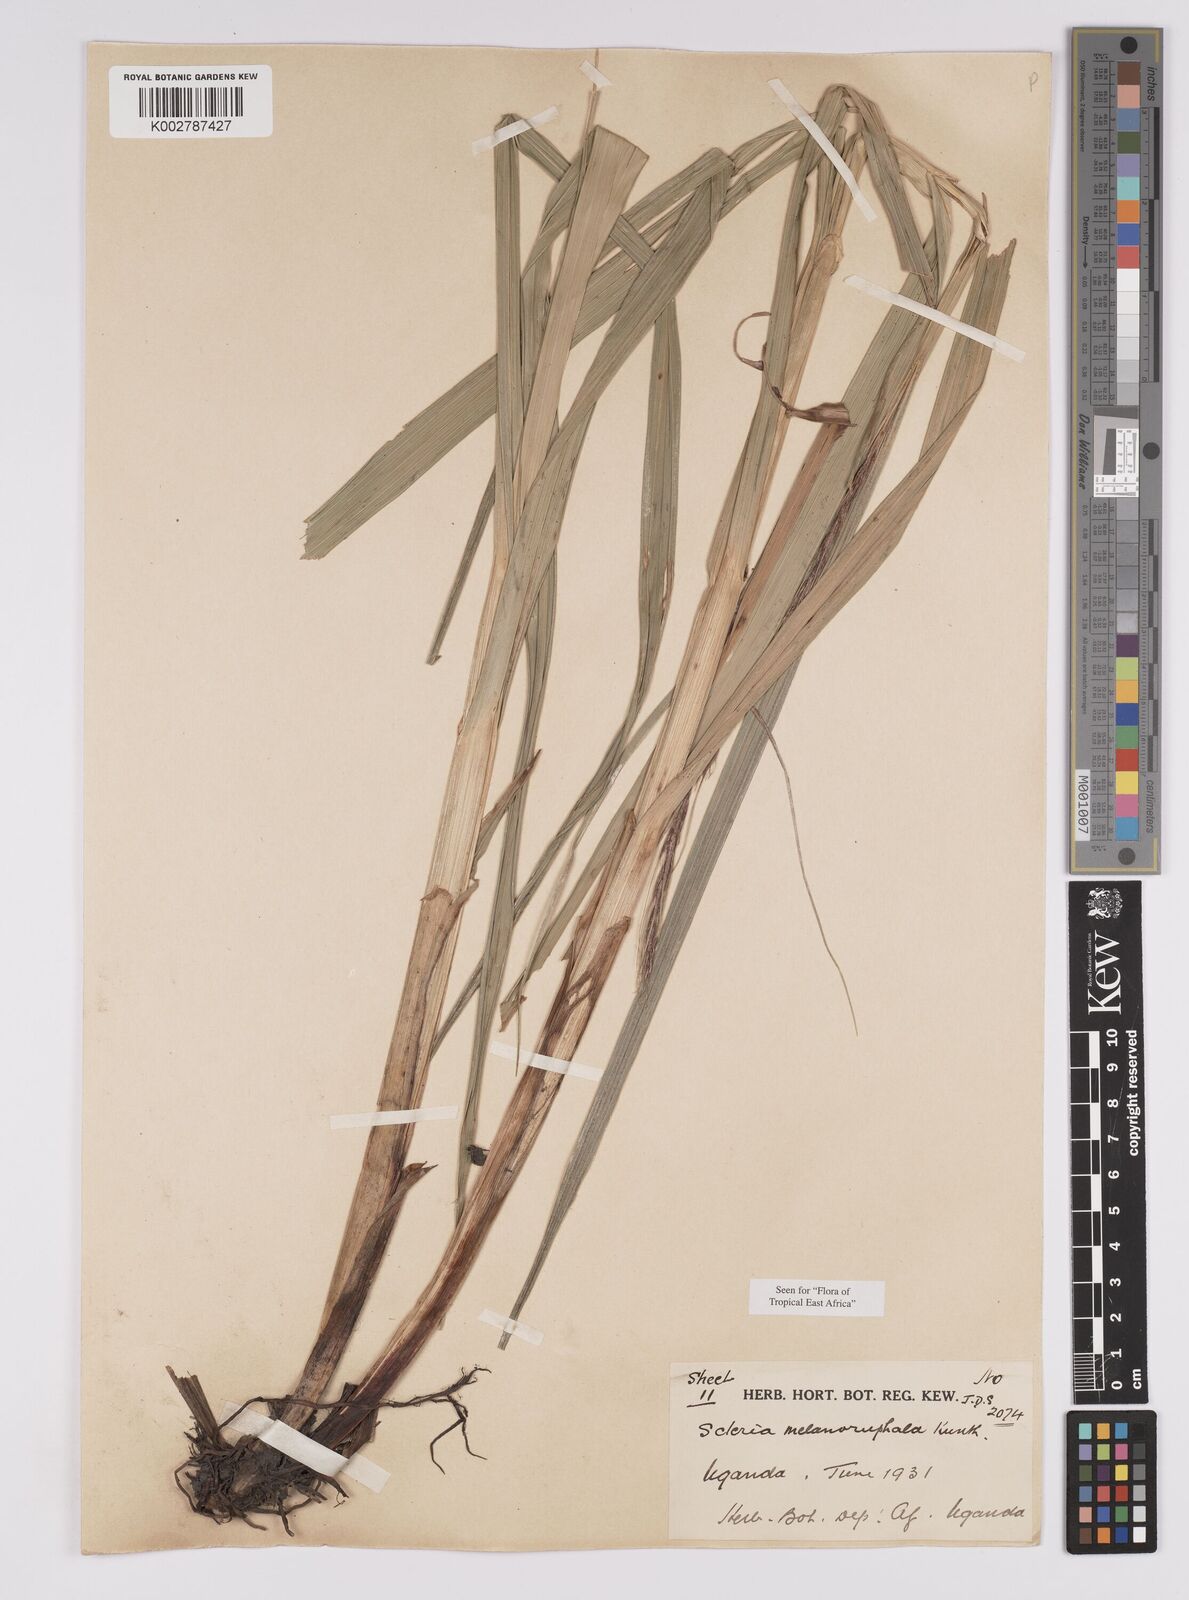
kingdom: Plantae
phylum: Tracheophyta
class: Liliopsida
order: Poales
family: Cyperaceae
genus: Scleria
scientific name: Scleria melanomphala
